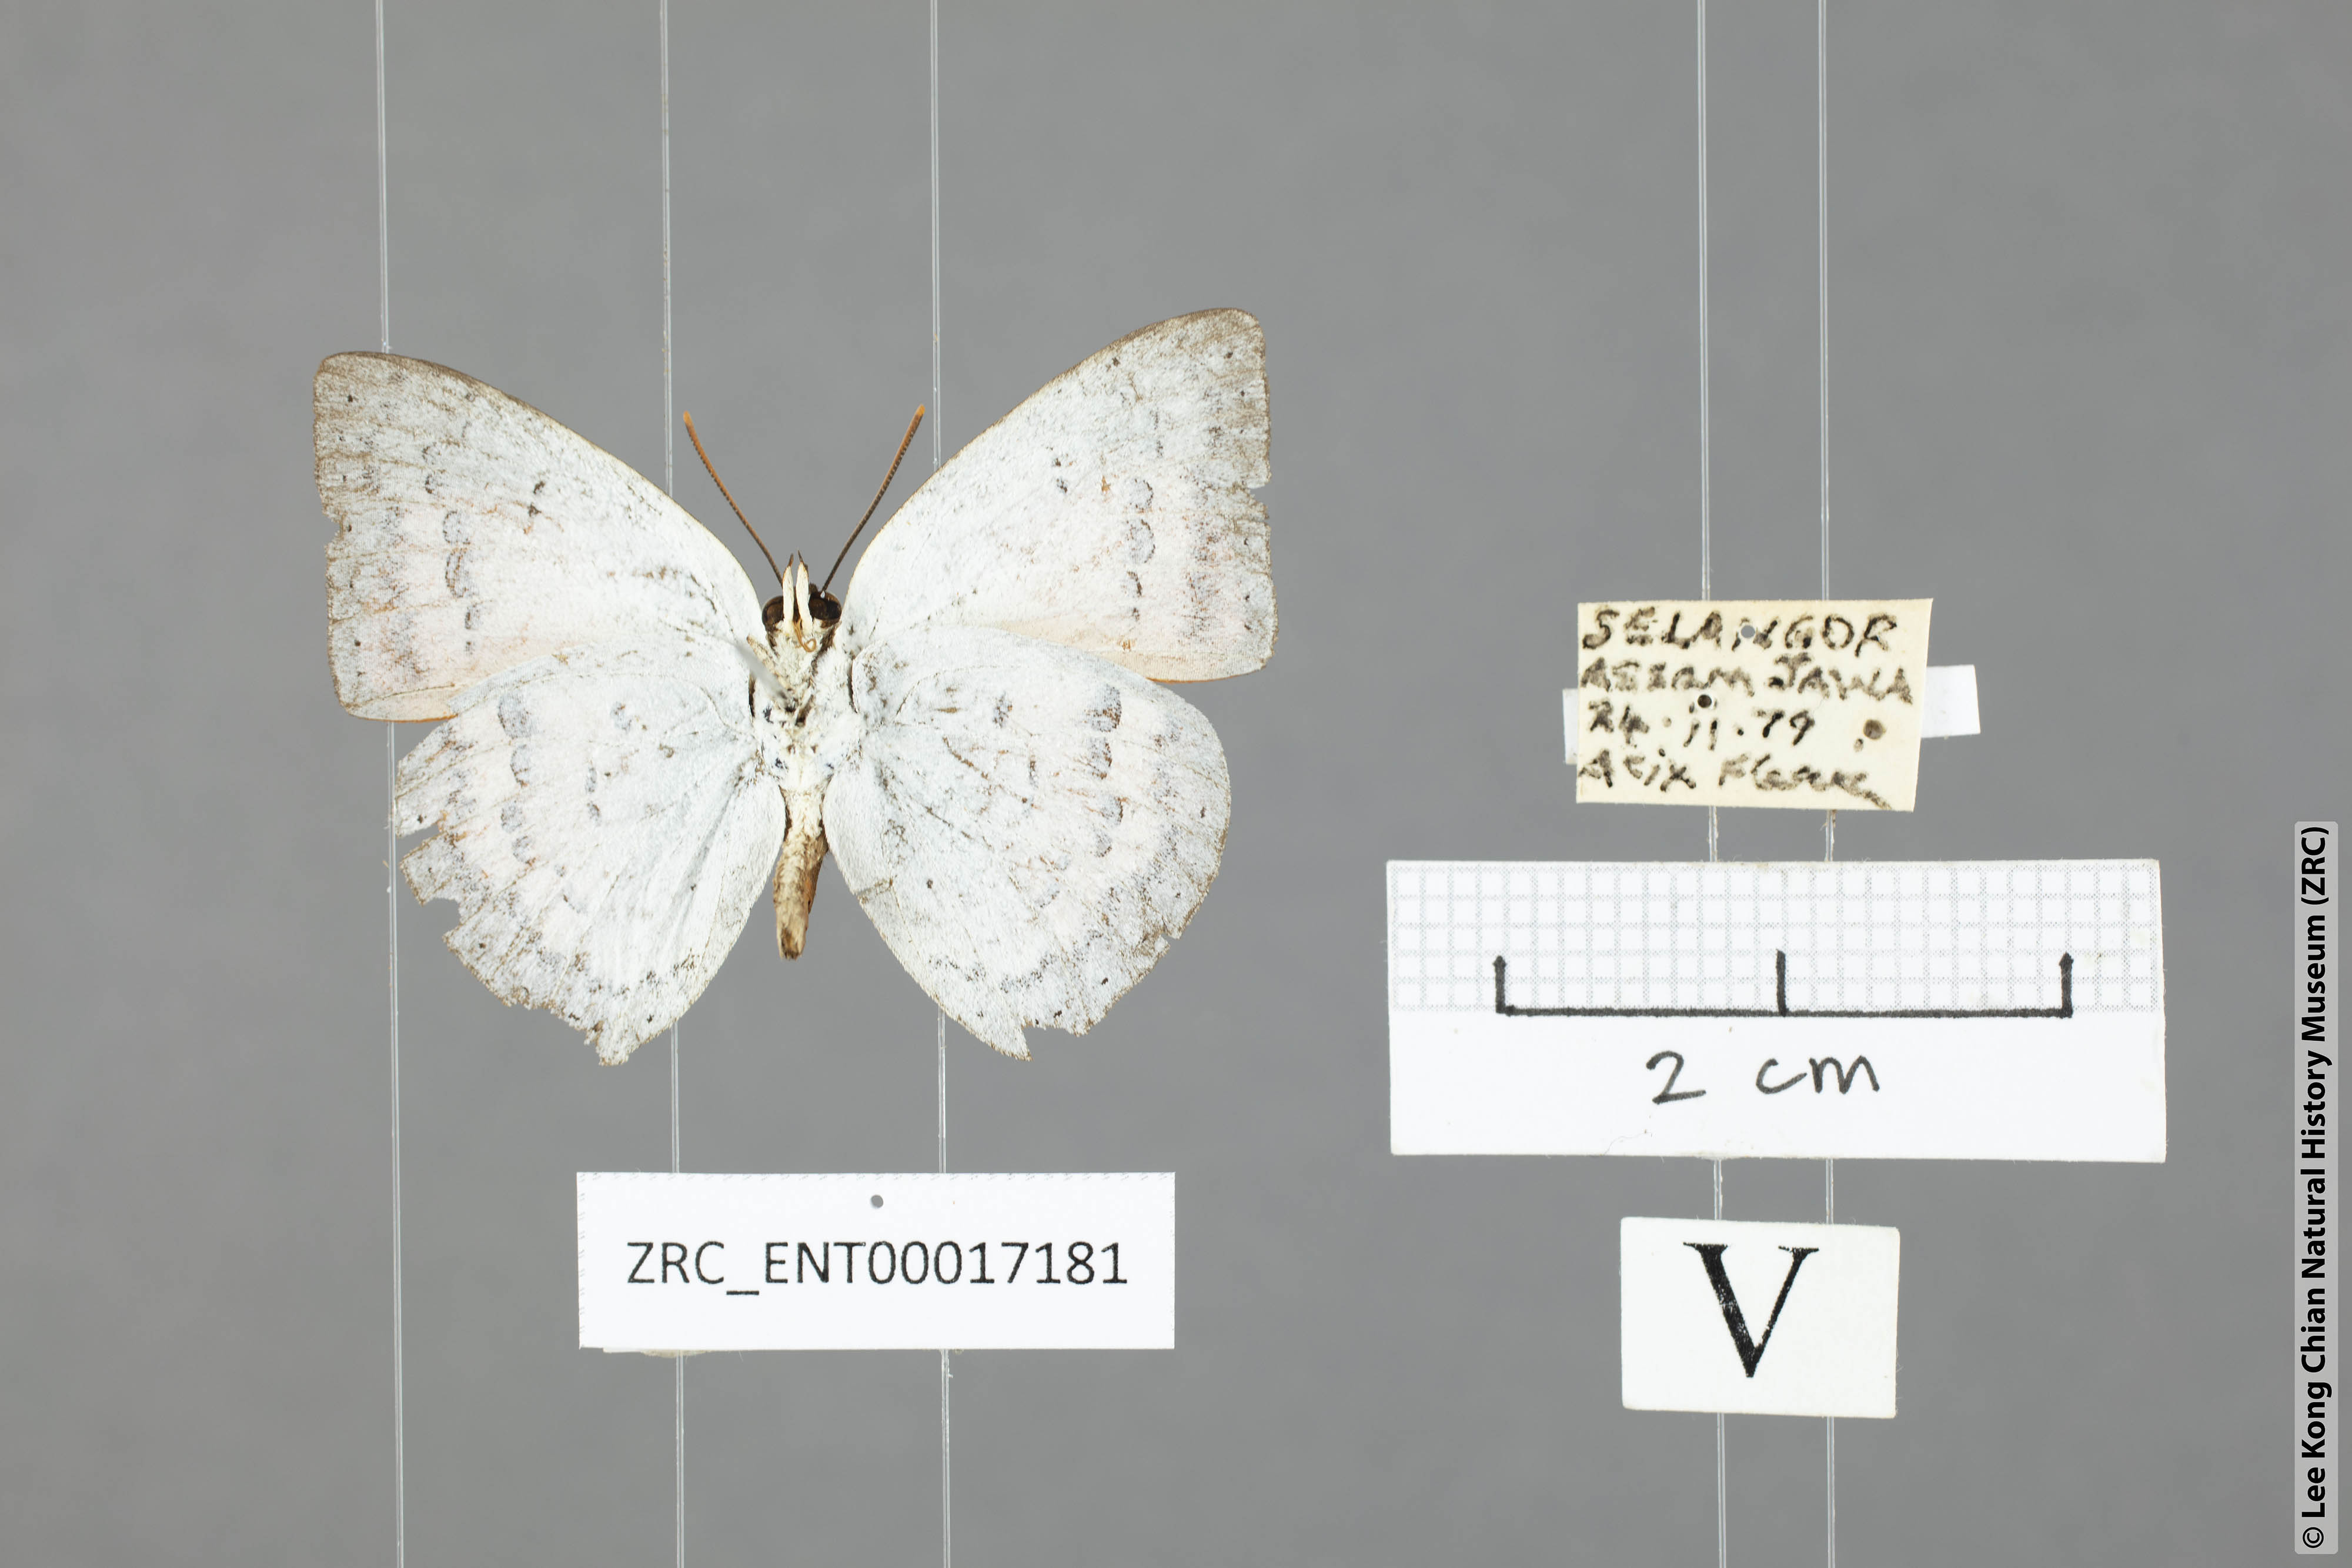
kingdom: Animalia
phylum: Arthropoda
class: Insecta
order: Lepidoptera
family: Lycaenidae
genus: Curetis
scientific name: Curetis saronis
